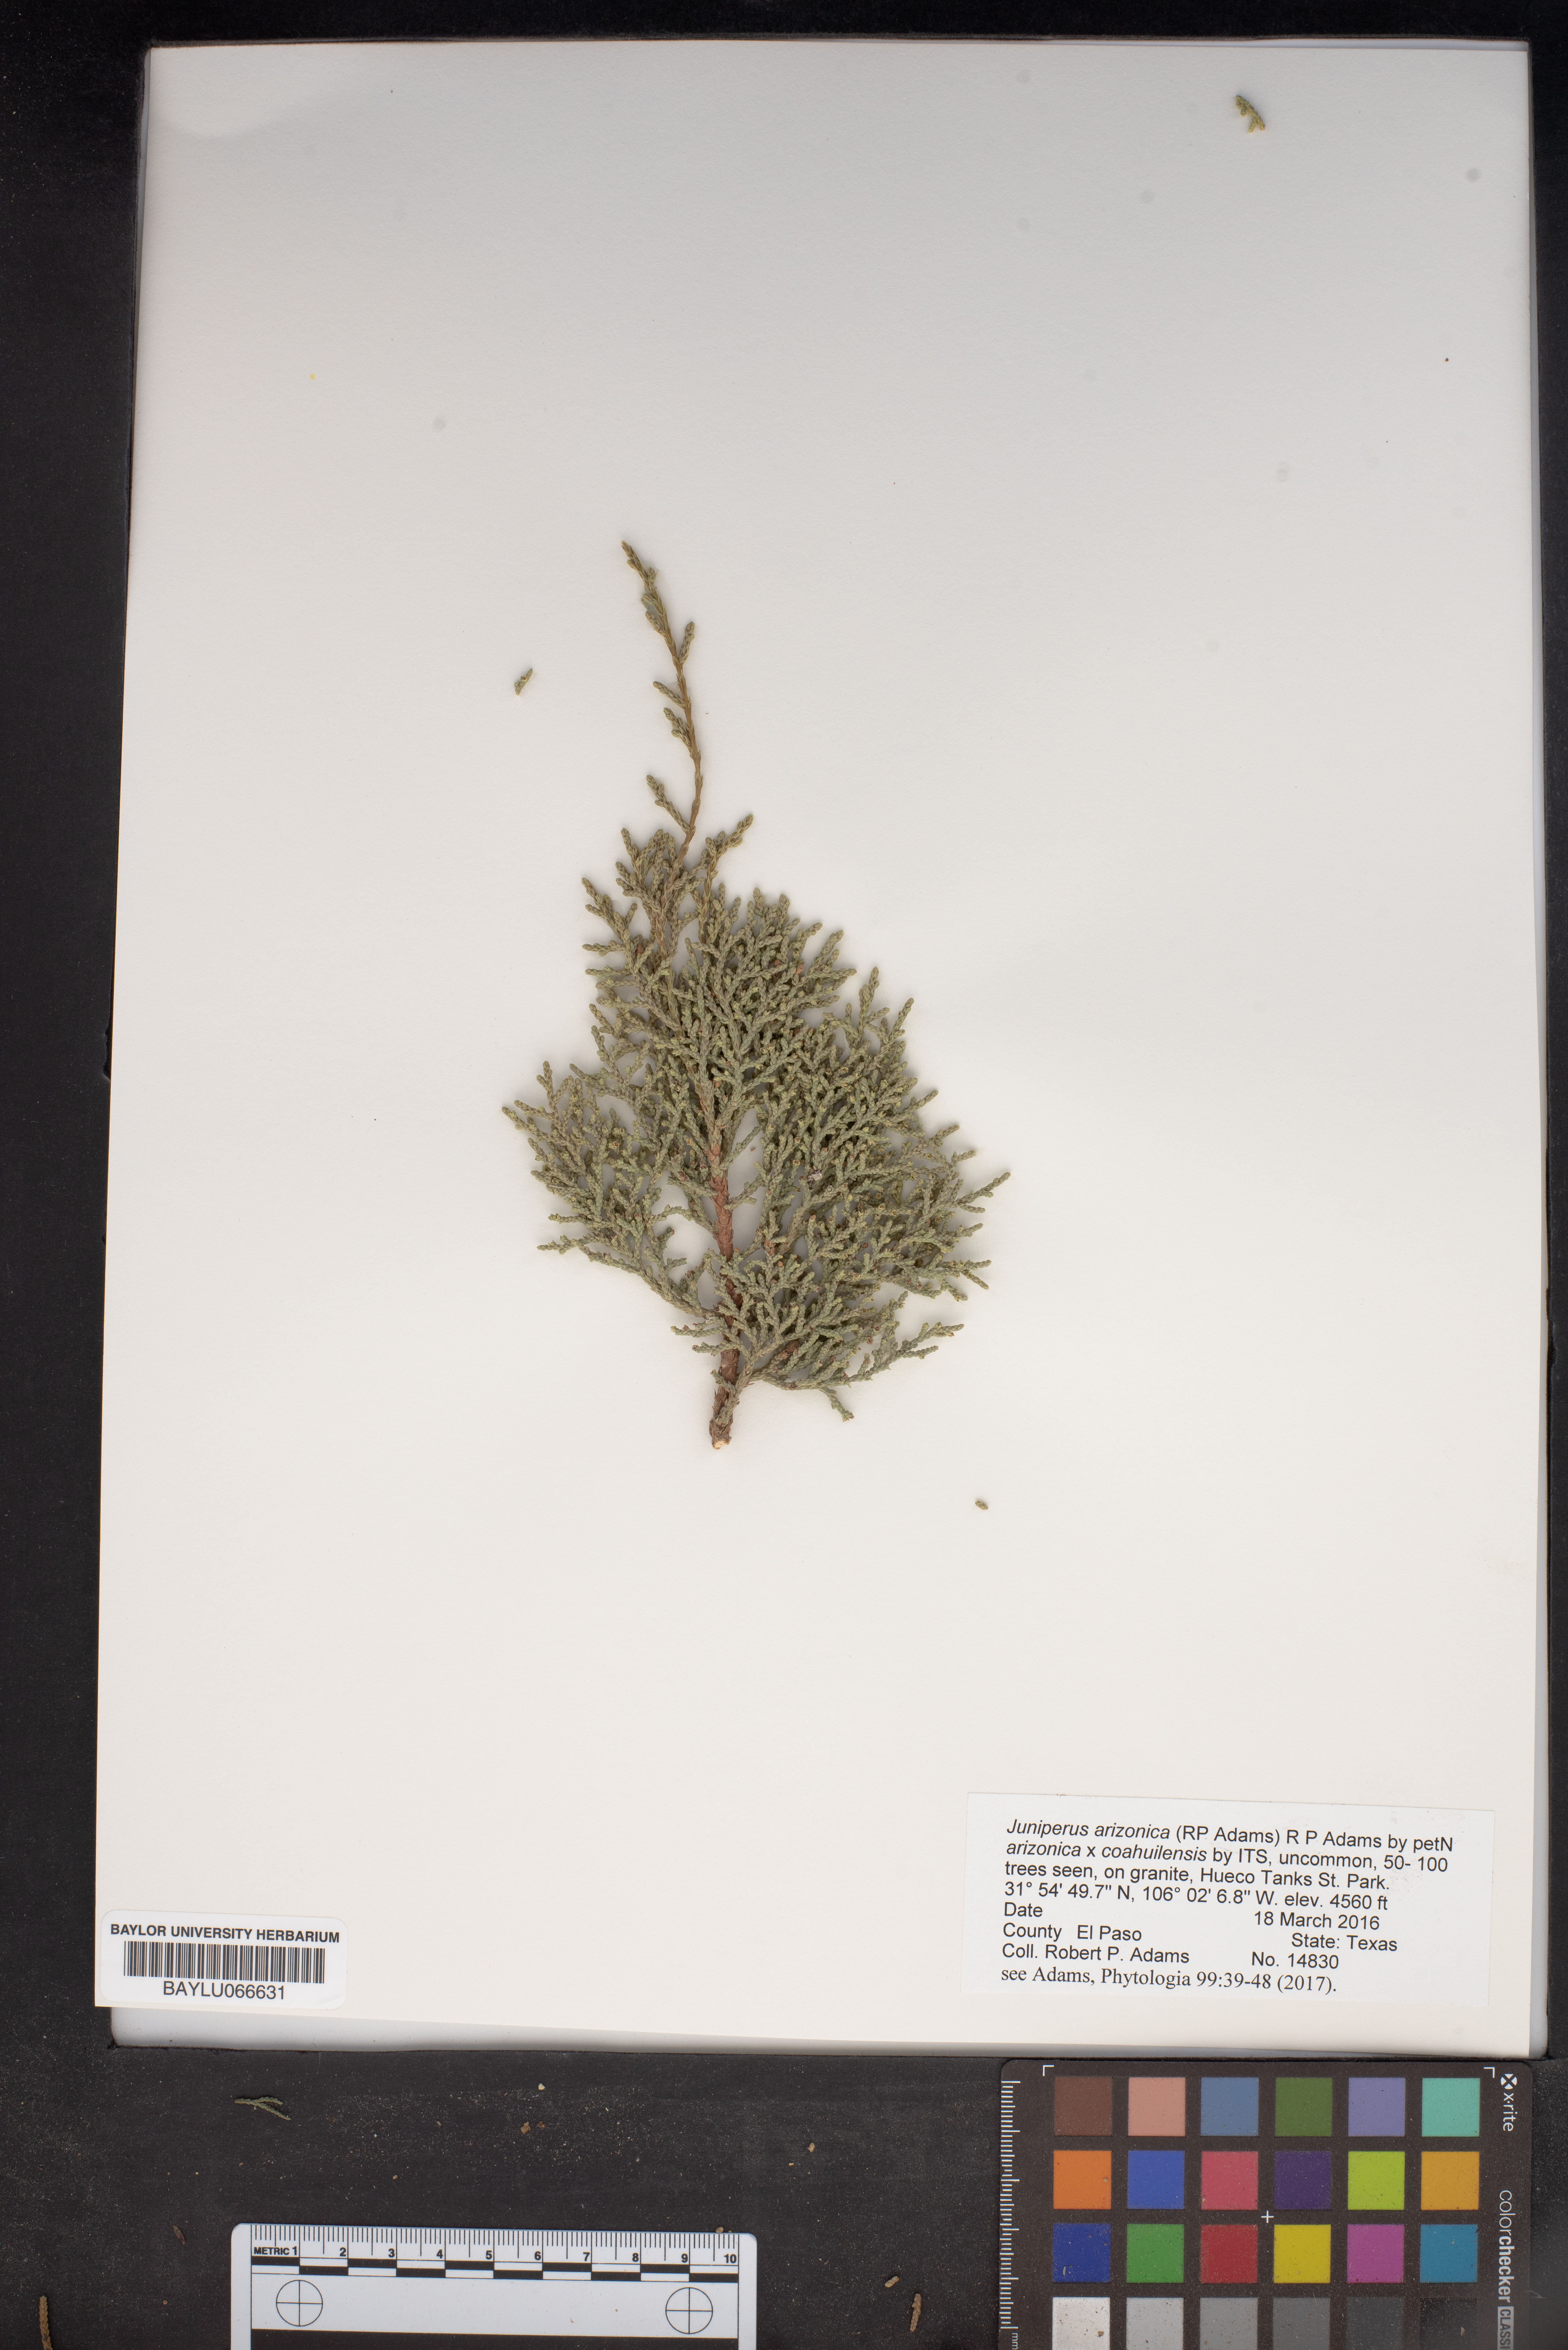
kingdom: Plantae
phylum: Tracheophyta
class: Pinopsida
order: Pinales
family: Cupressaceae
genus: Juniperus
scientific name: Juniperus arizonica
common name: Arizona juniper
